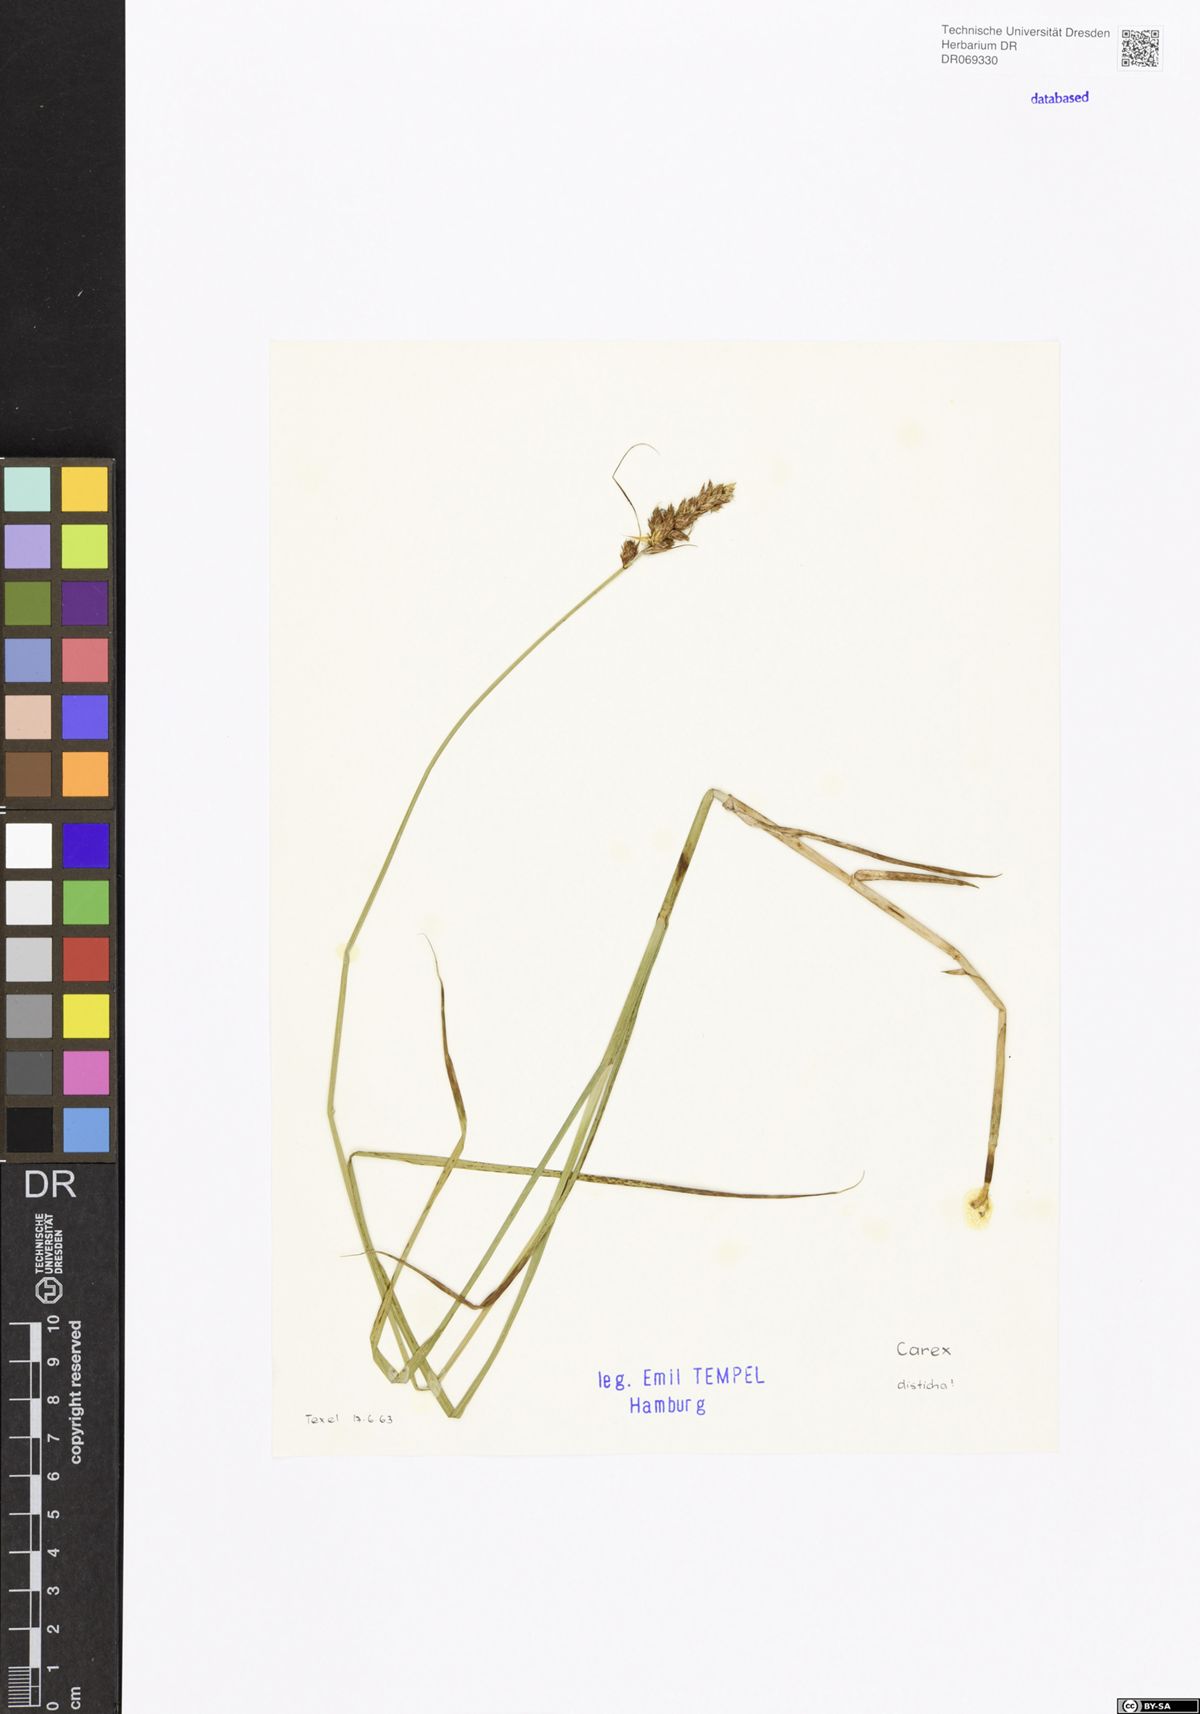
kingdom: Plantae
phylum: Tracheophyta
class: Liliopsida
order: Poales
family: Cyperaceae
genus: Carex
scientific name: Carex disticha
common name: Brown sedge
